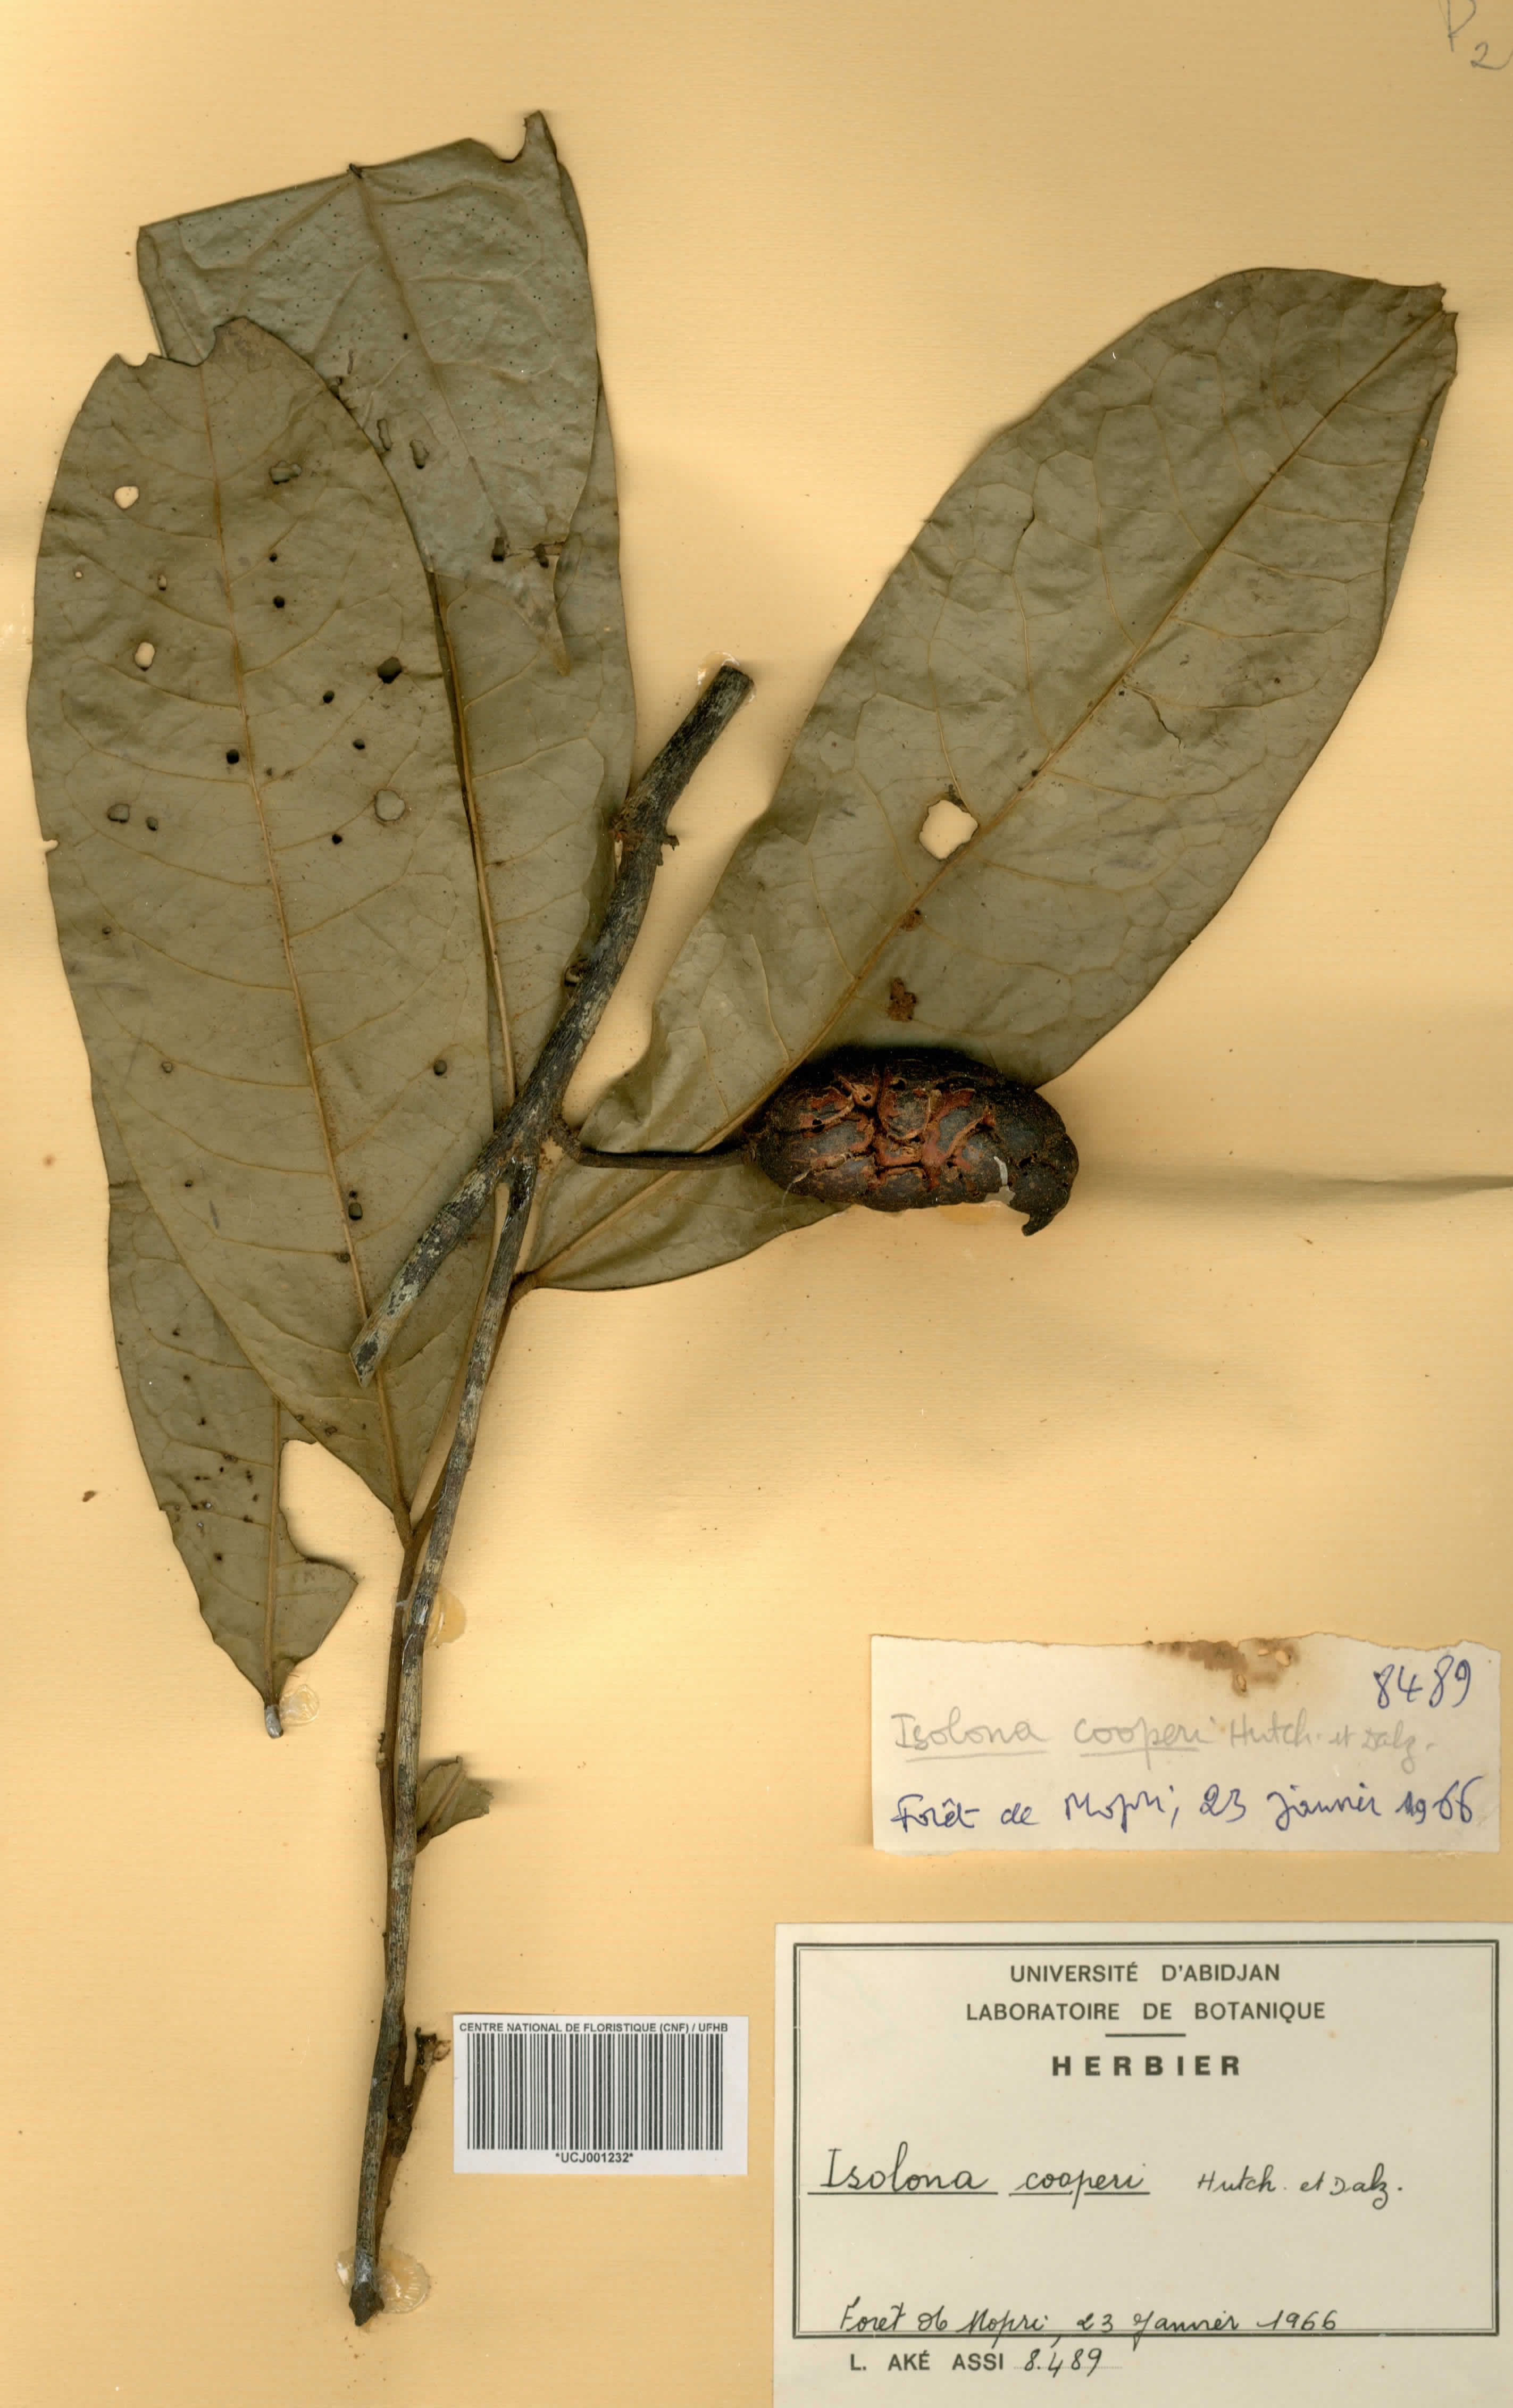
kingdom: Plantae
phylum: Tracheophyta
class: Magnoliopsida
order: Magnoliales
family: Annonaceae
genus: Isolona
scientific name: Isolona cooperi
